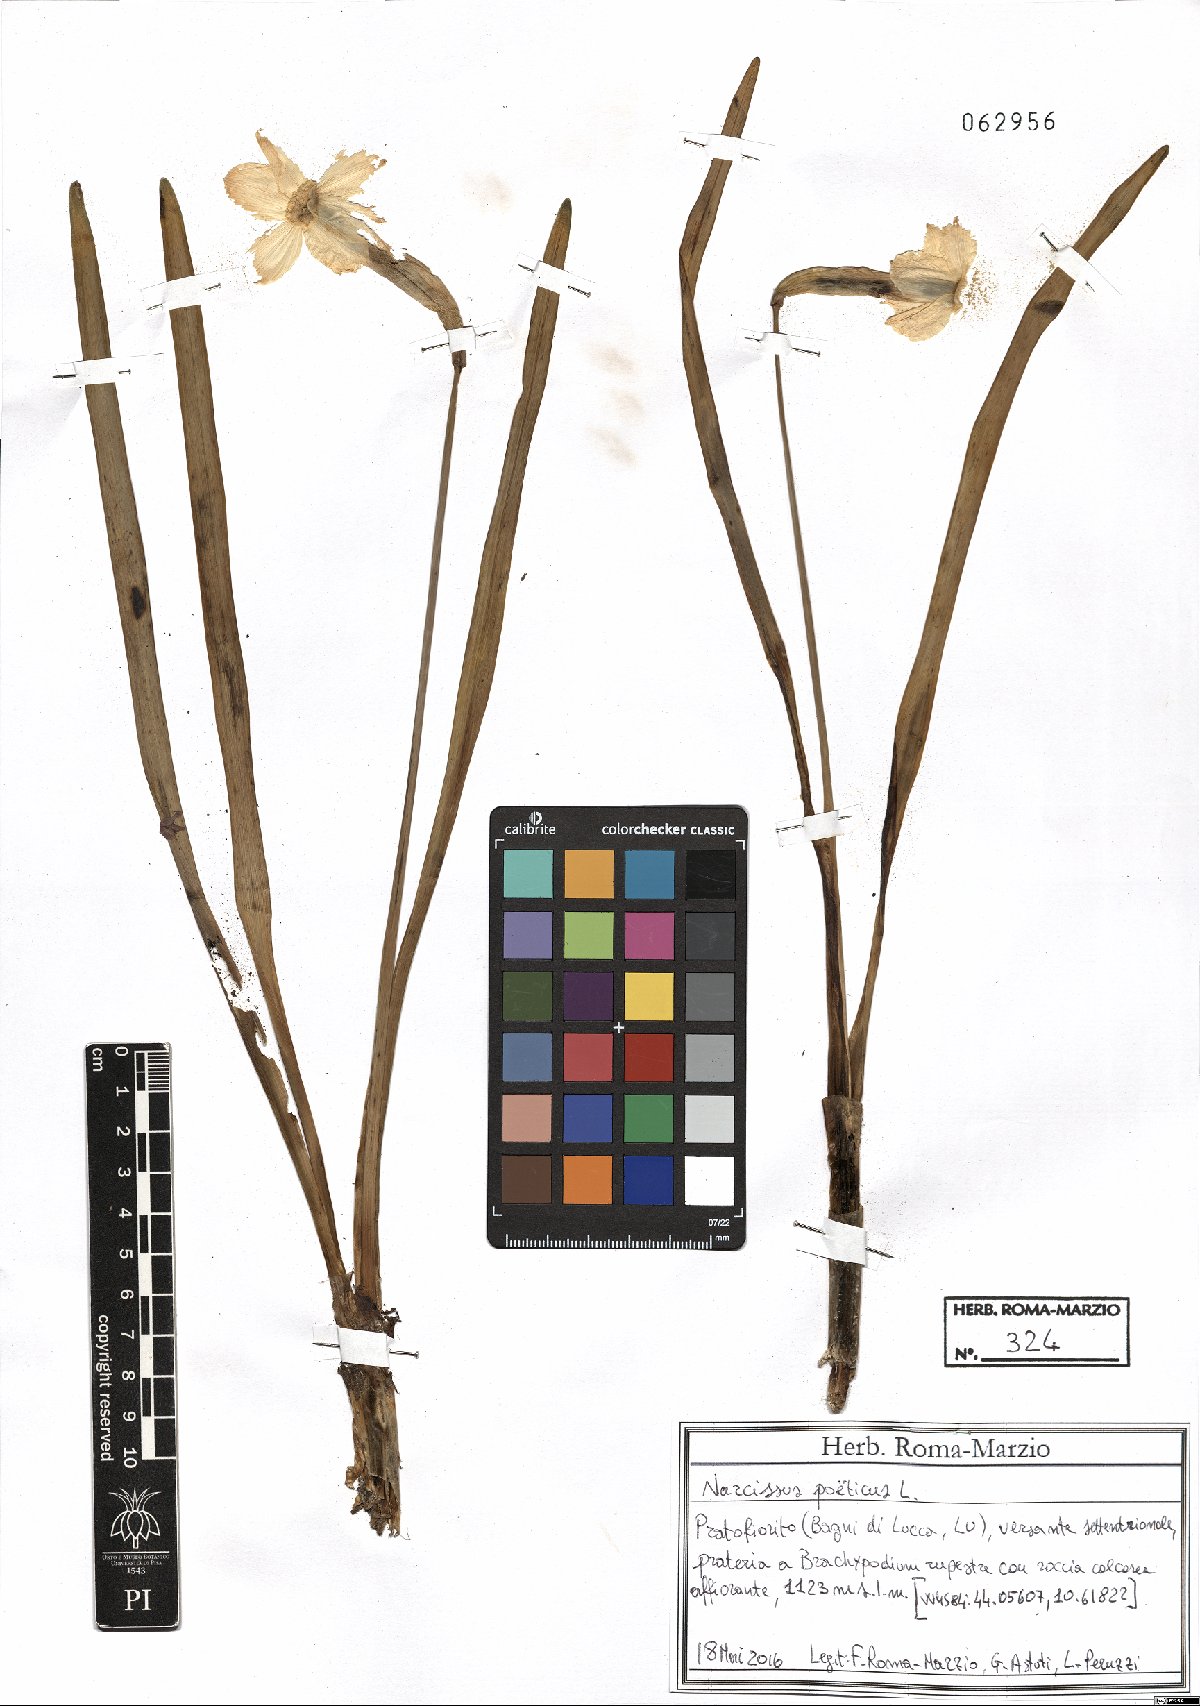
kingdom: Plantae
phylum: Tracheophyta
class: Liliopsida
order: Asparagales
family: Amaryllidaceae
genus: Narcissus
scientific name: Narcissus poeticus
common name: Pheasant's-eye daffodil
